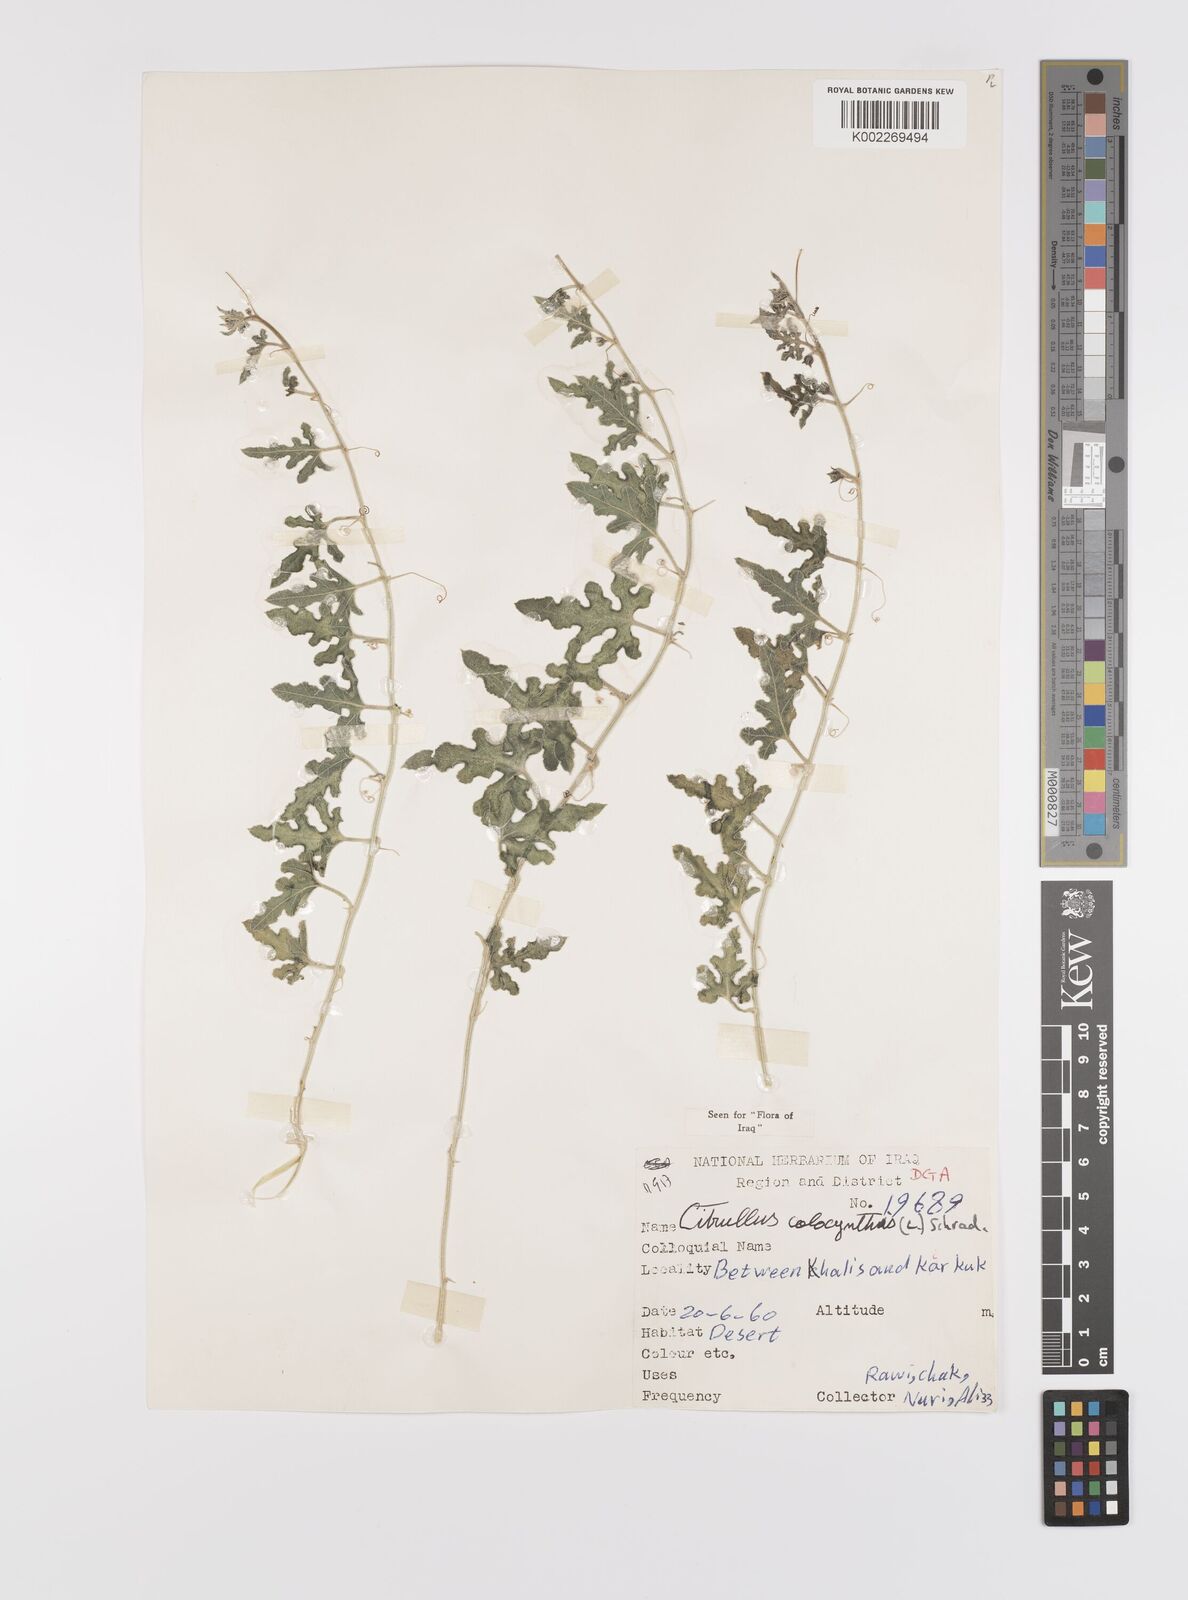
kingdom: Plantae
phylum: Tracheophyta
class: Magnoliopsida
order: Cucurbitales
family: Cucurbitaceae
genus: Citrullus
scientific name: Citrullus colocynthis
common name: Colocynth
